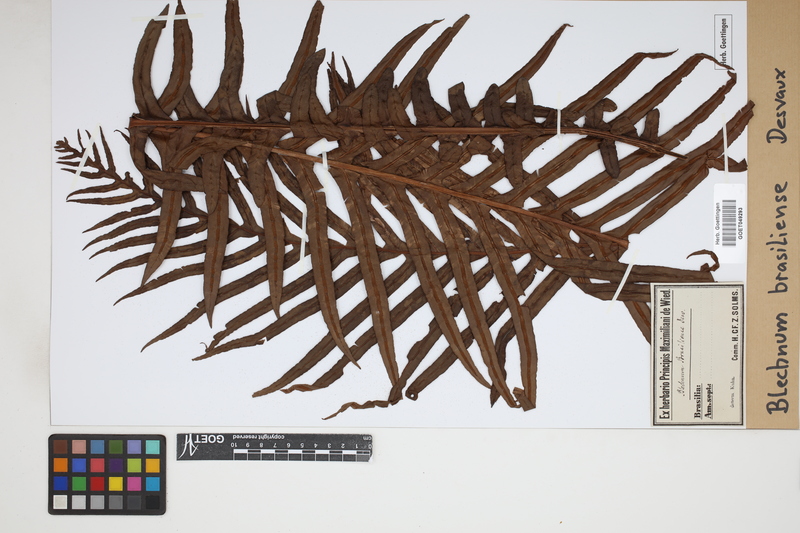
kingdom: Plantae
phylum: Tracheophyta
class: Polypodiopsida
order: Polypodiales
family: Blechnaceae
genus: Neoblechnum
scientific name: Neoblechnum brasiliense
